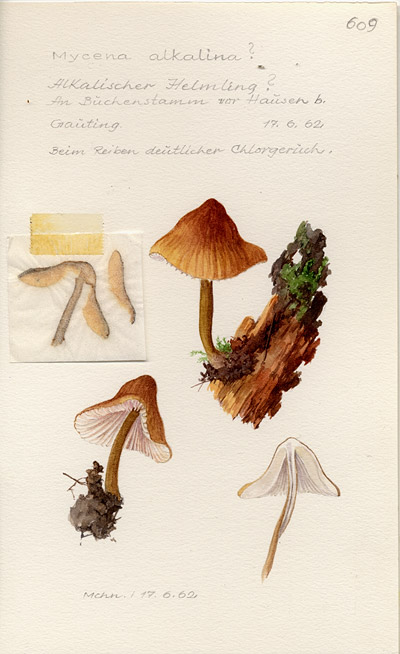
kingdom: Fungi
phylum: Basidiomycota
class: Agaricomycetes
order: Agaricales
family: Mycenaceae
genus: Mycena
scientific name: Mycena alcalina
